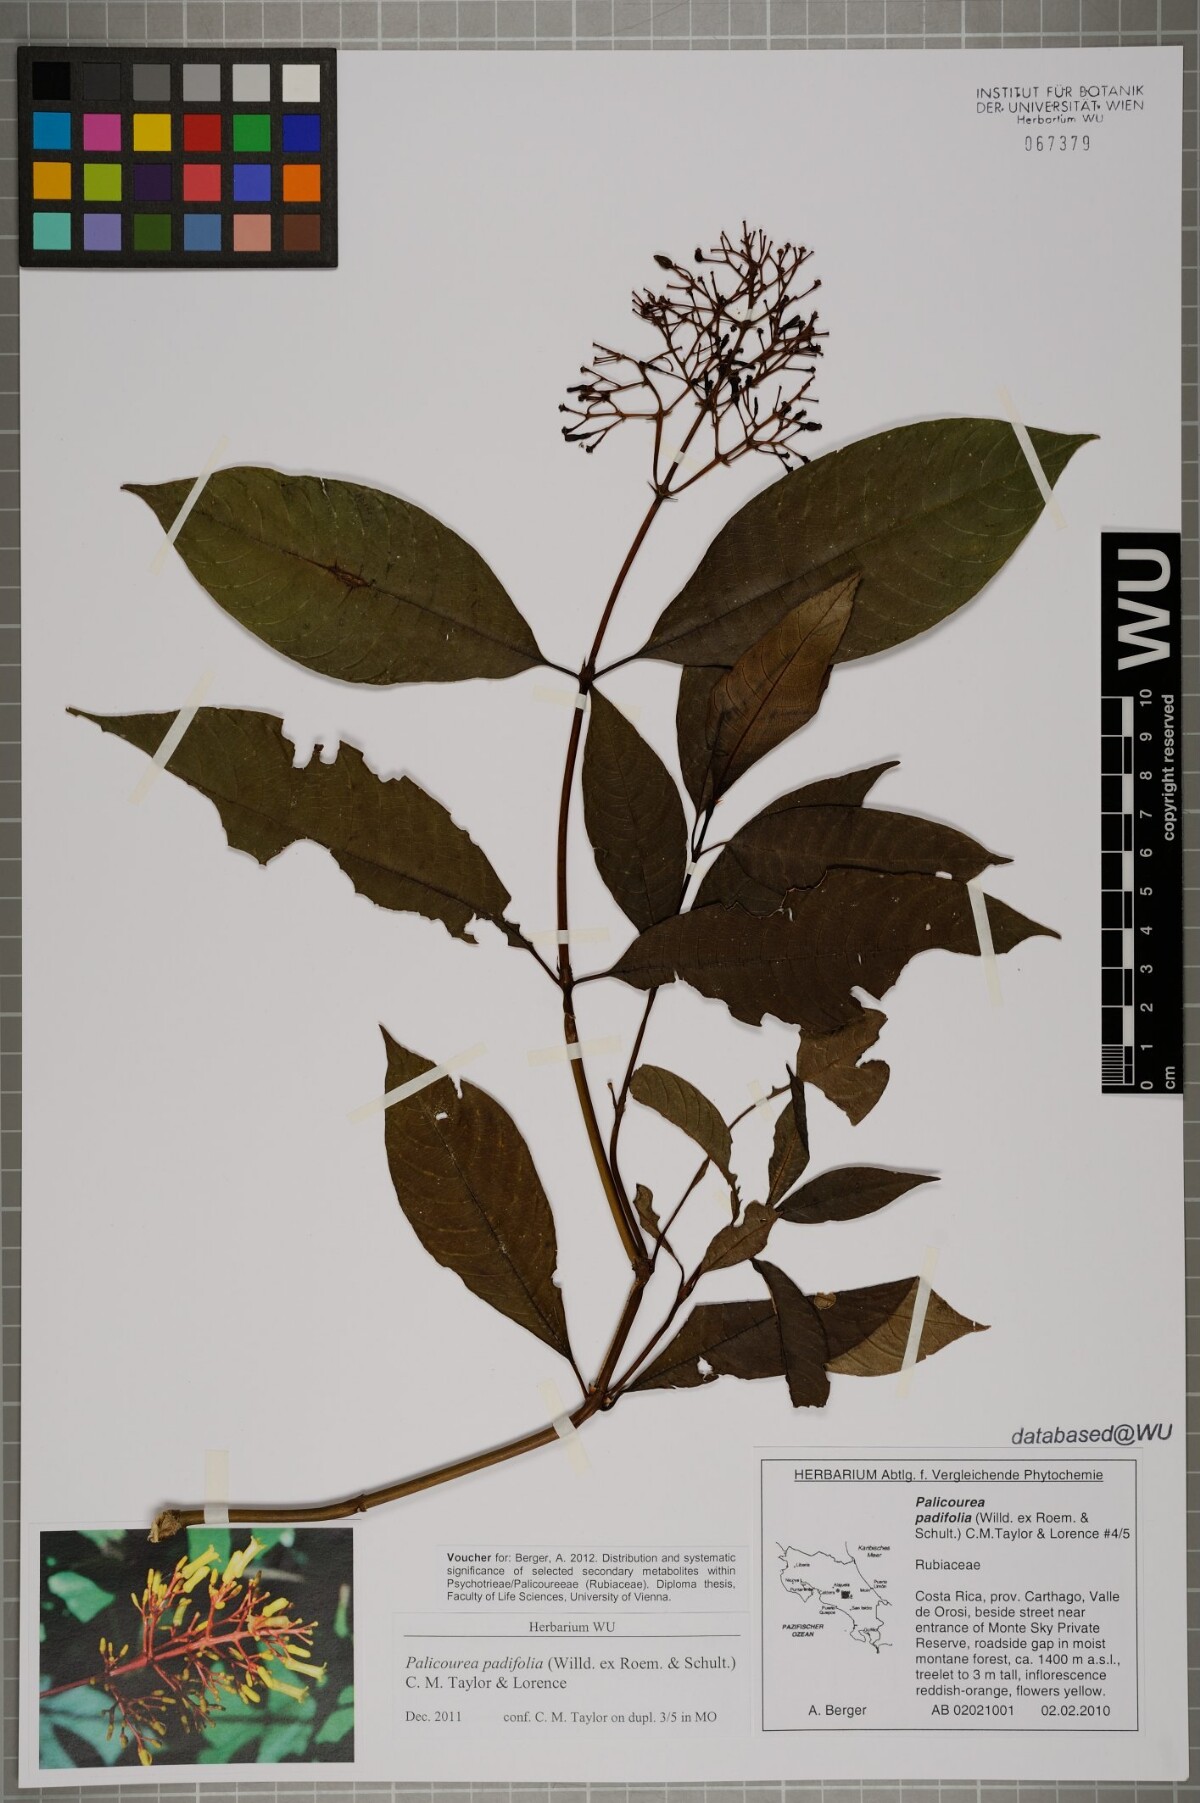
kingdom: Plantae
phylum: Tracheophyta
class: Magnoliopsida
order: Gentianales
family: Rubiaceae
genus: Palicourea
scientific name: Palicourea padifolia
